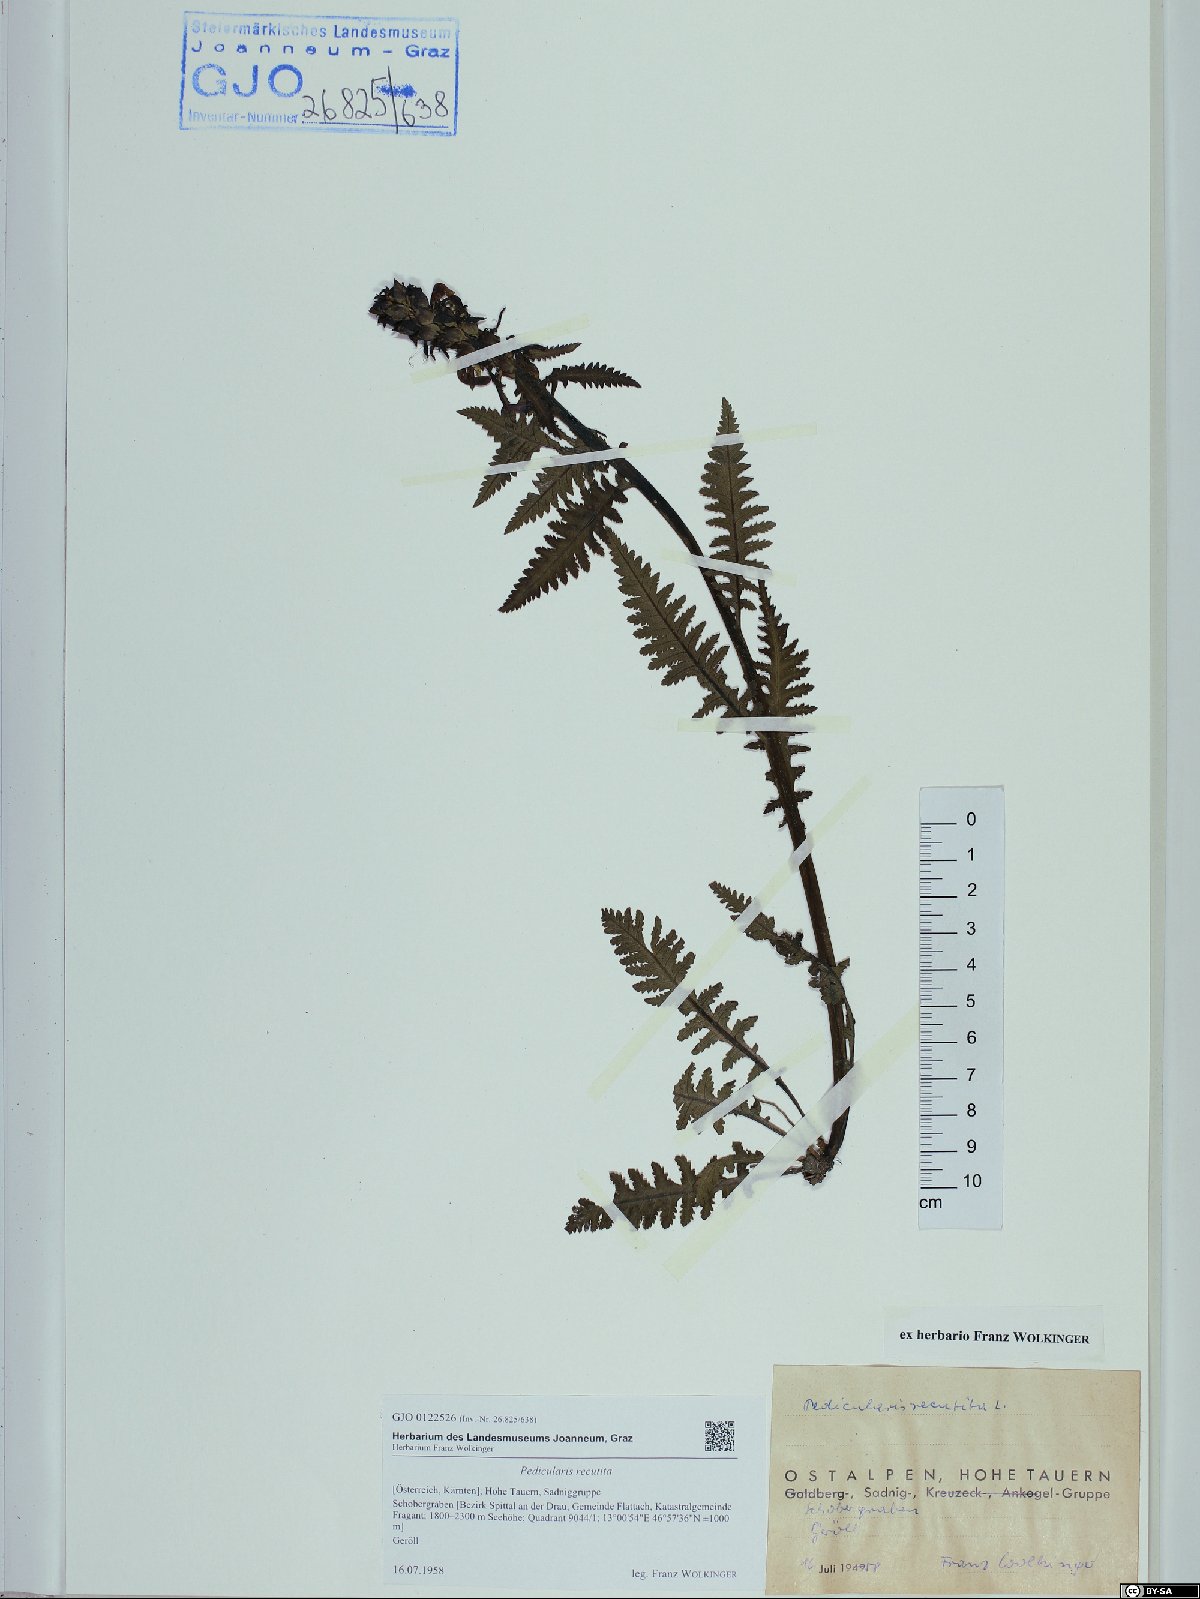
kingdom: Plantae
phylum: Tracheophyta
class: Magnoliopsida
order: Lamiales
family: Orobanchaceae
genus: Pedicularis
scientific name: Pedicularis recutita
